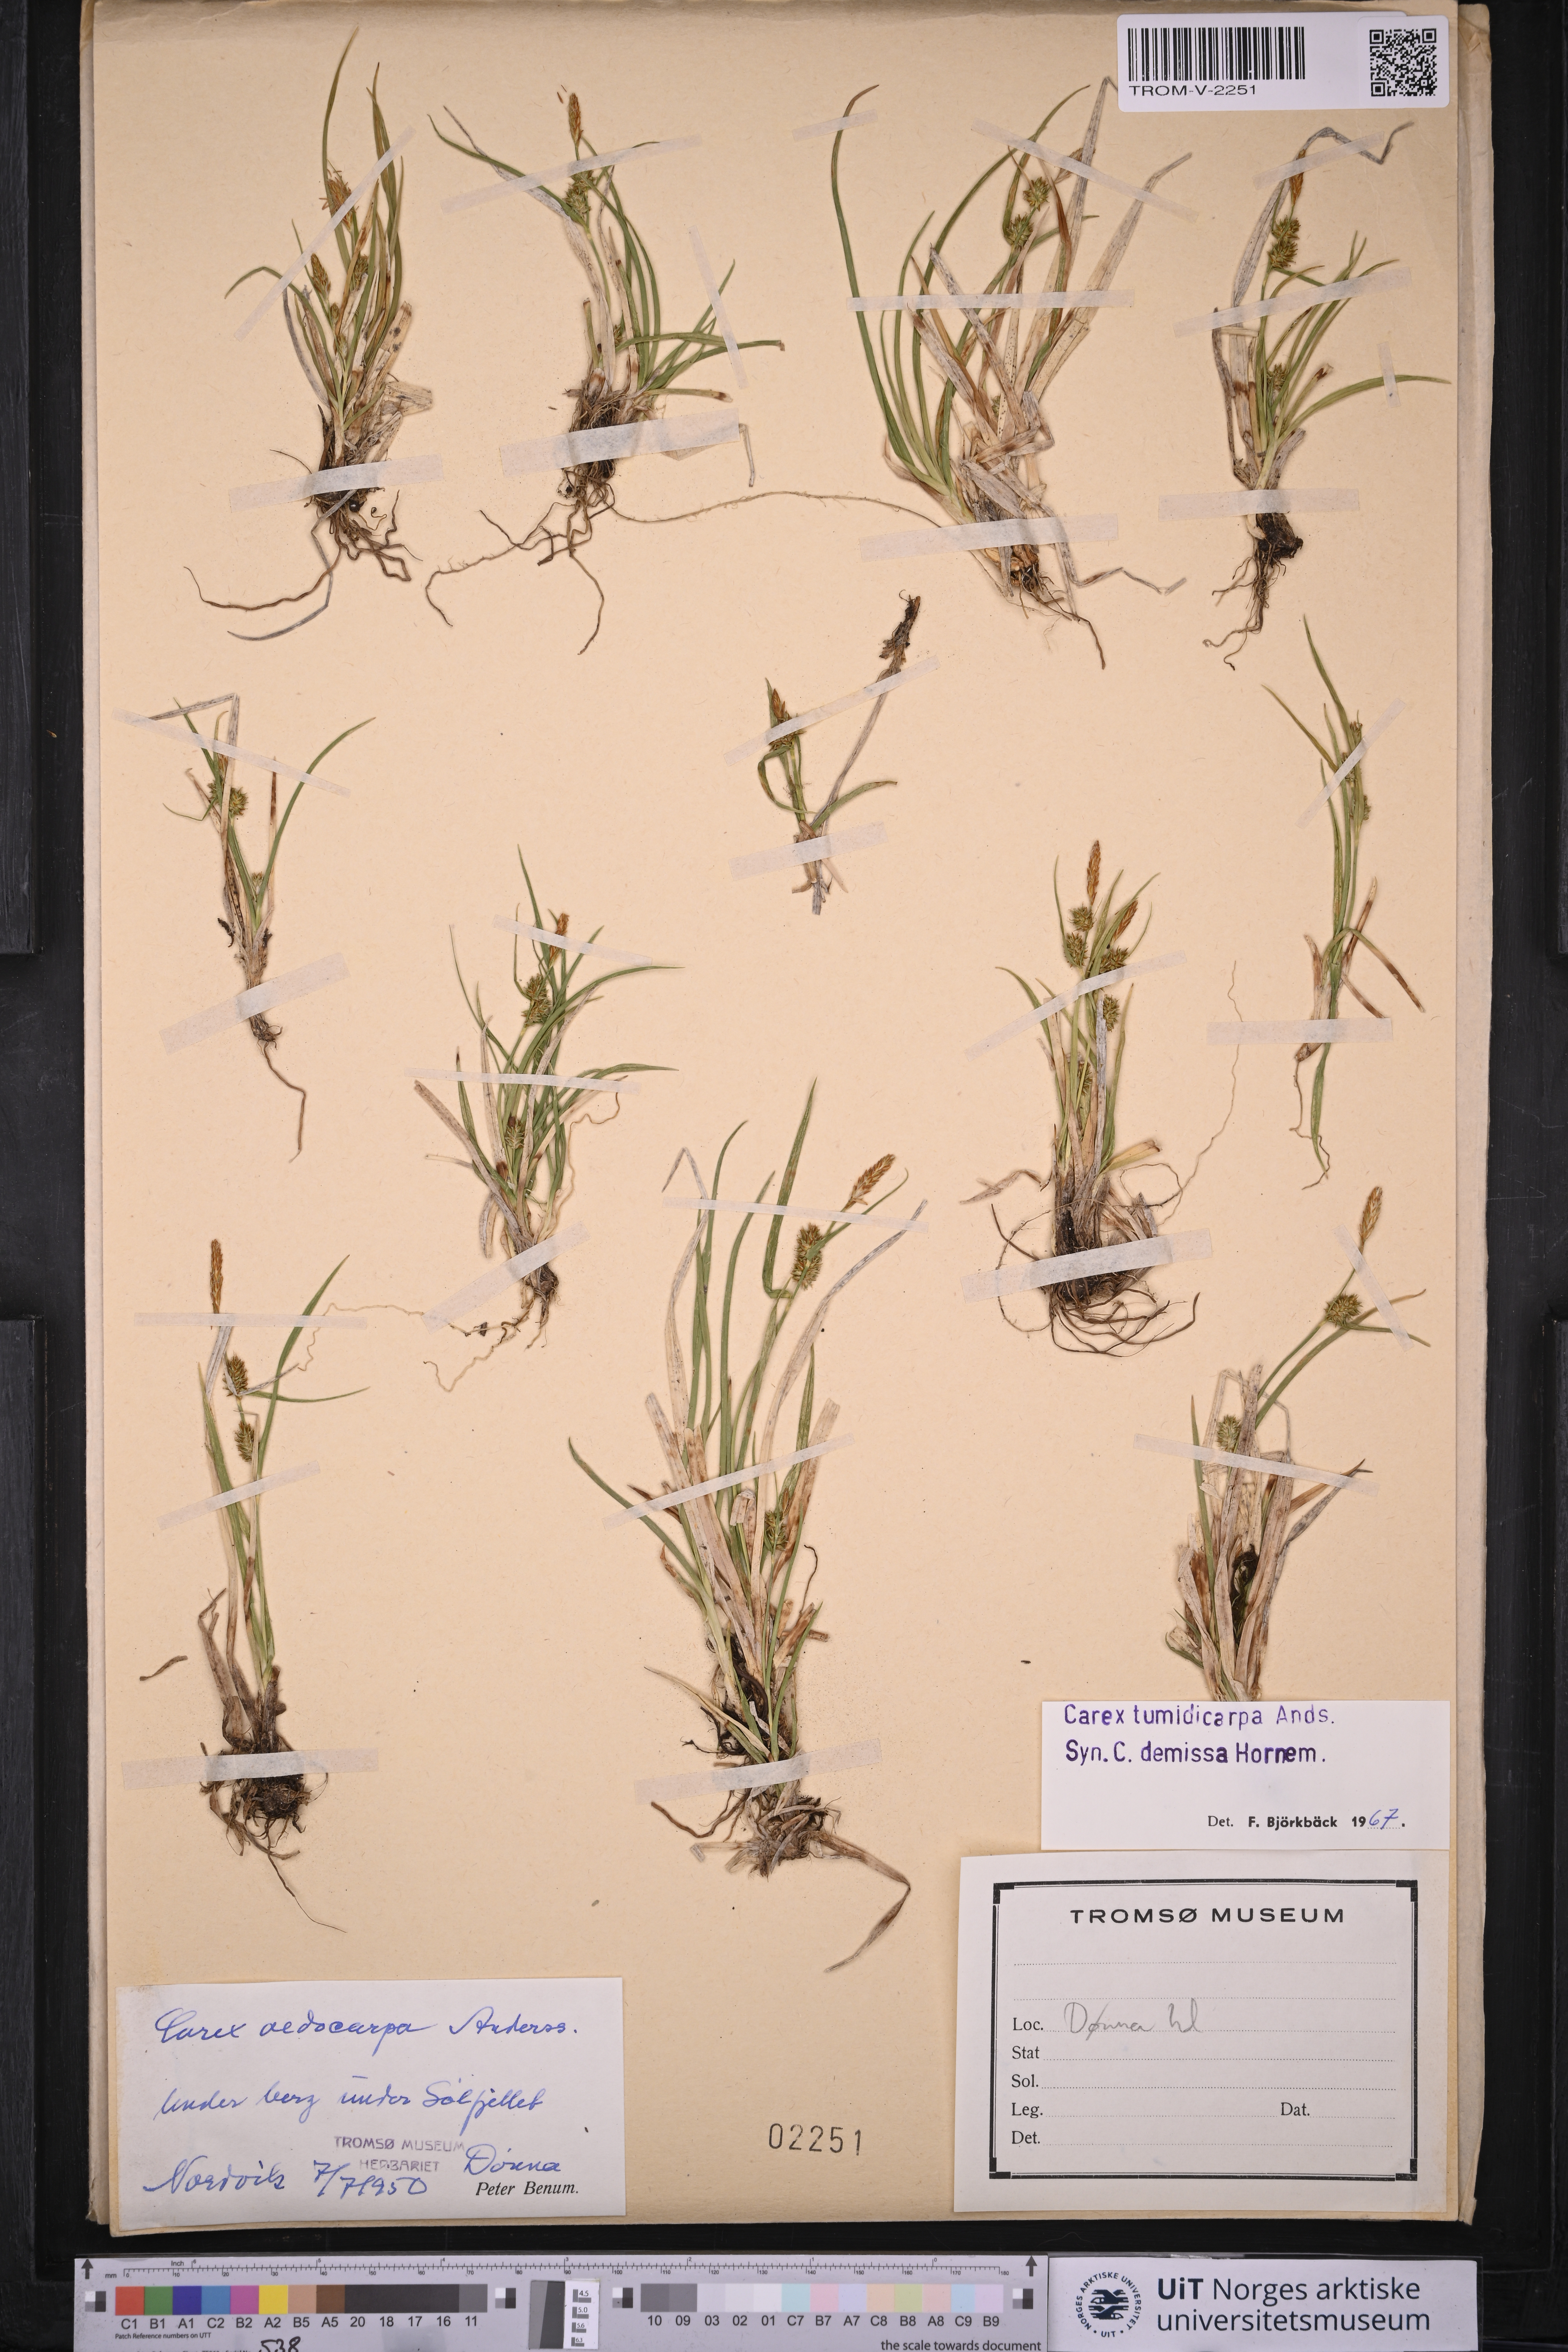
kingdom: Plantae
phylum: Tracheophyta
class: Liliopsida
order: Poales
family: Cyperaceae
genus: Carex
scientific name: Carex demissa
